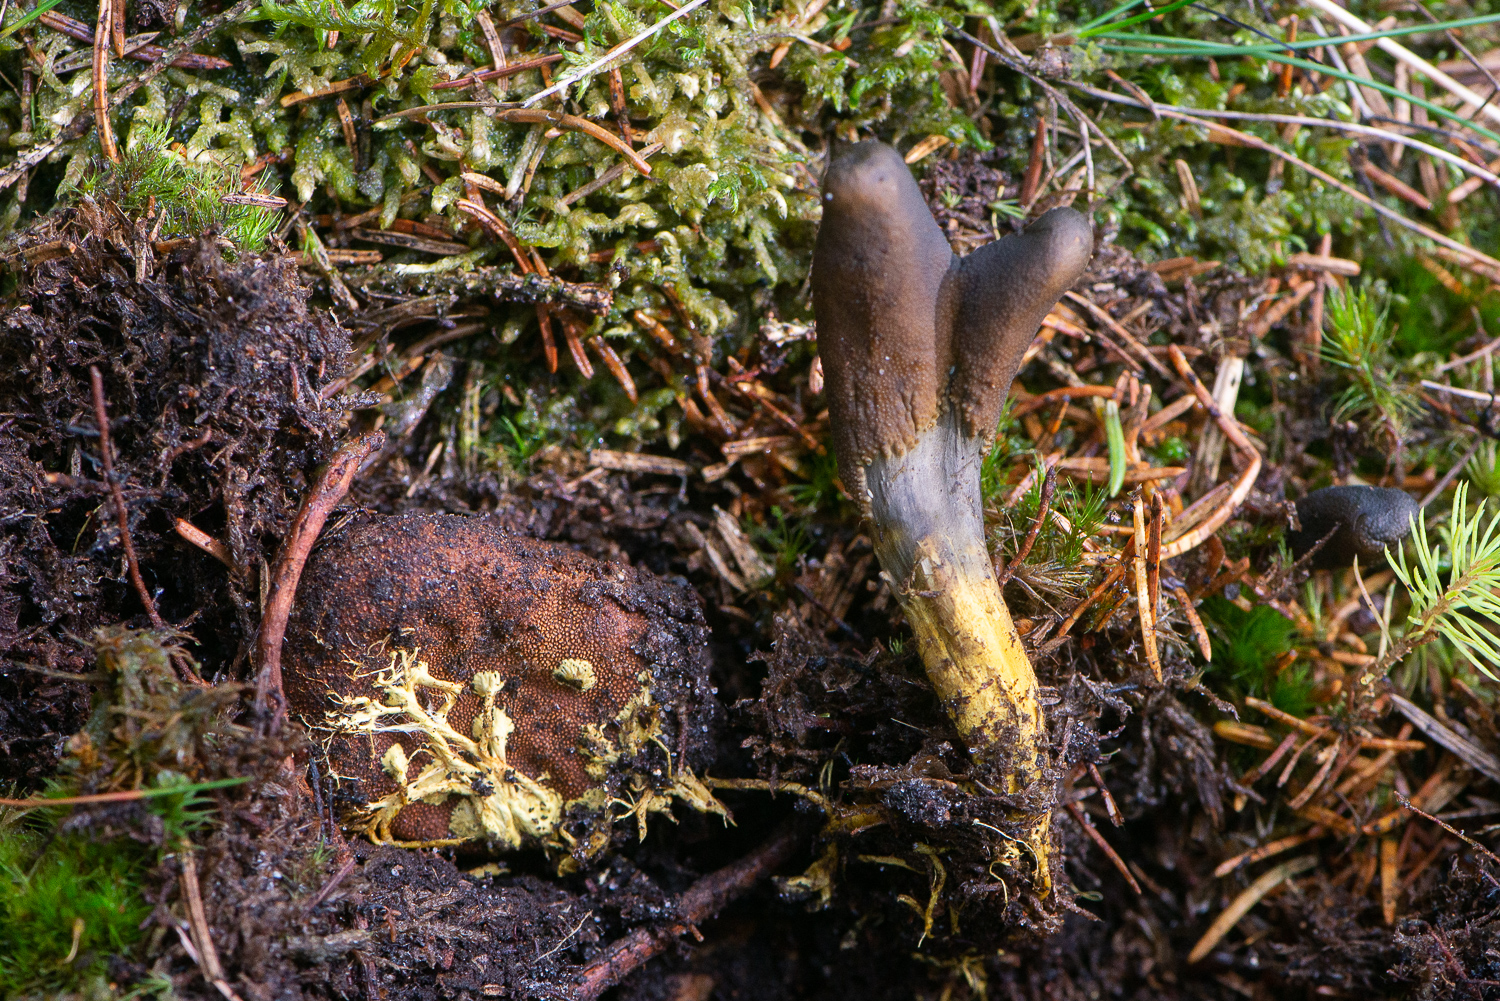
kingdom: Fungi
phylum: Ascomycota
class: Sordariomycetes
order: Hypocreales
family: Ophiocordycipitaceae
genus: Tolypocladium
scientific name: Tolypocladium ophioglossoides
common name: slank snyltekølle
